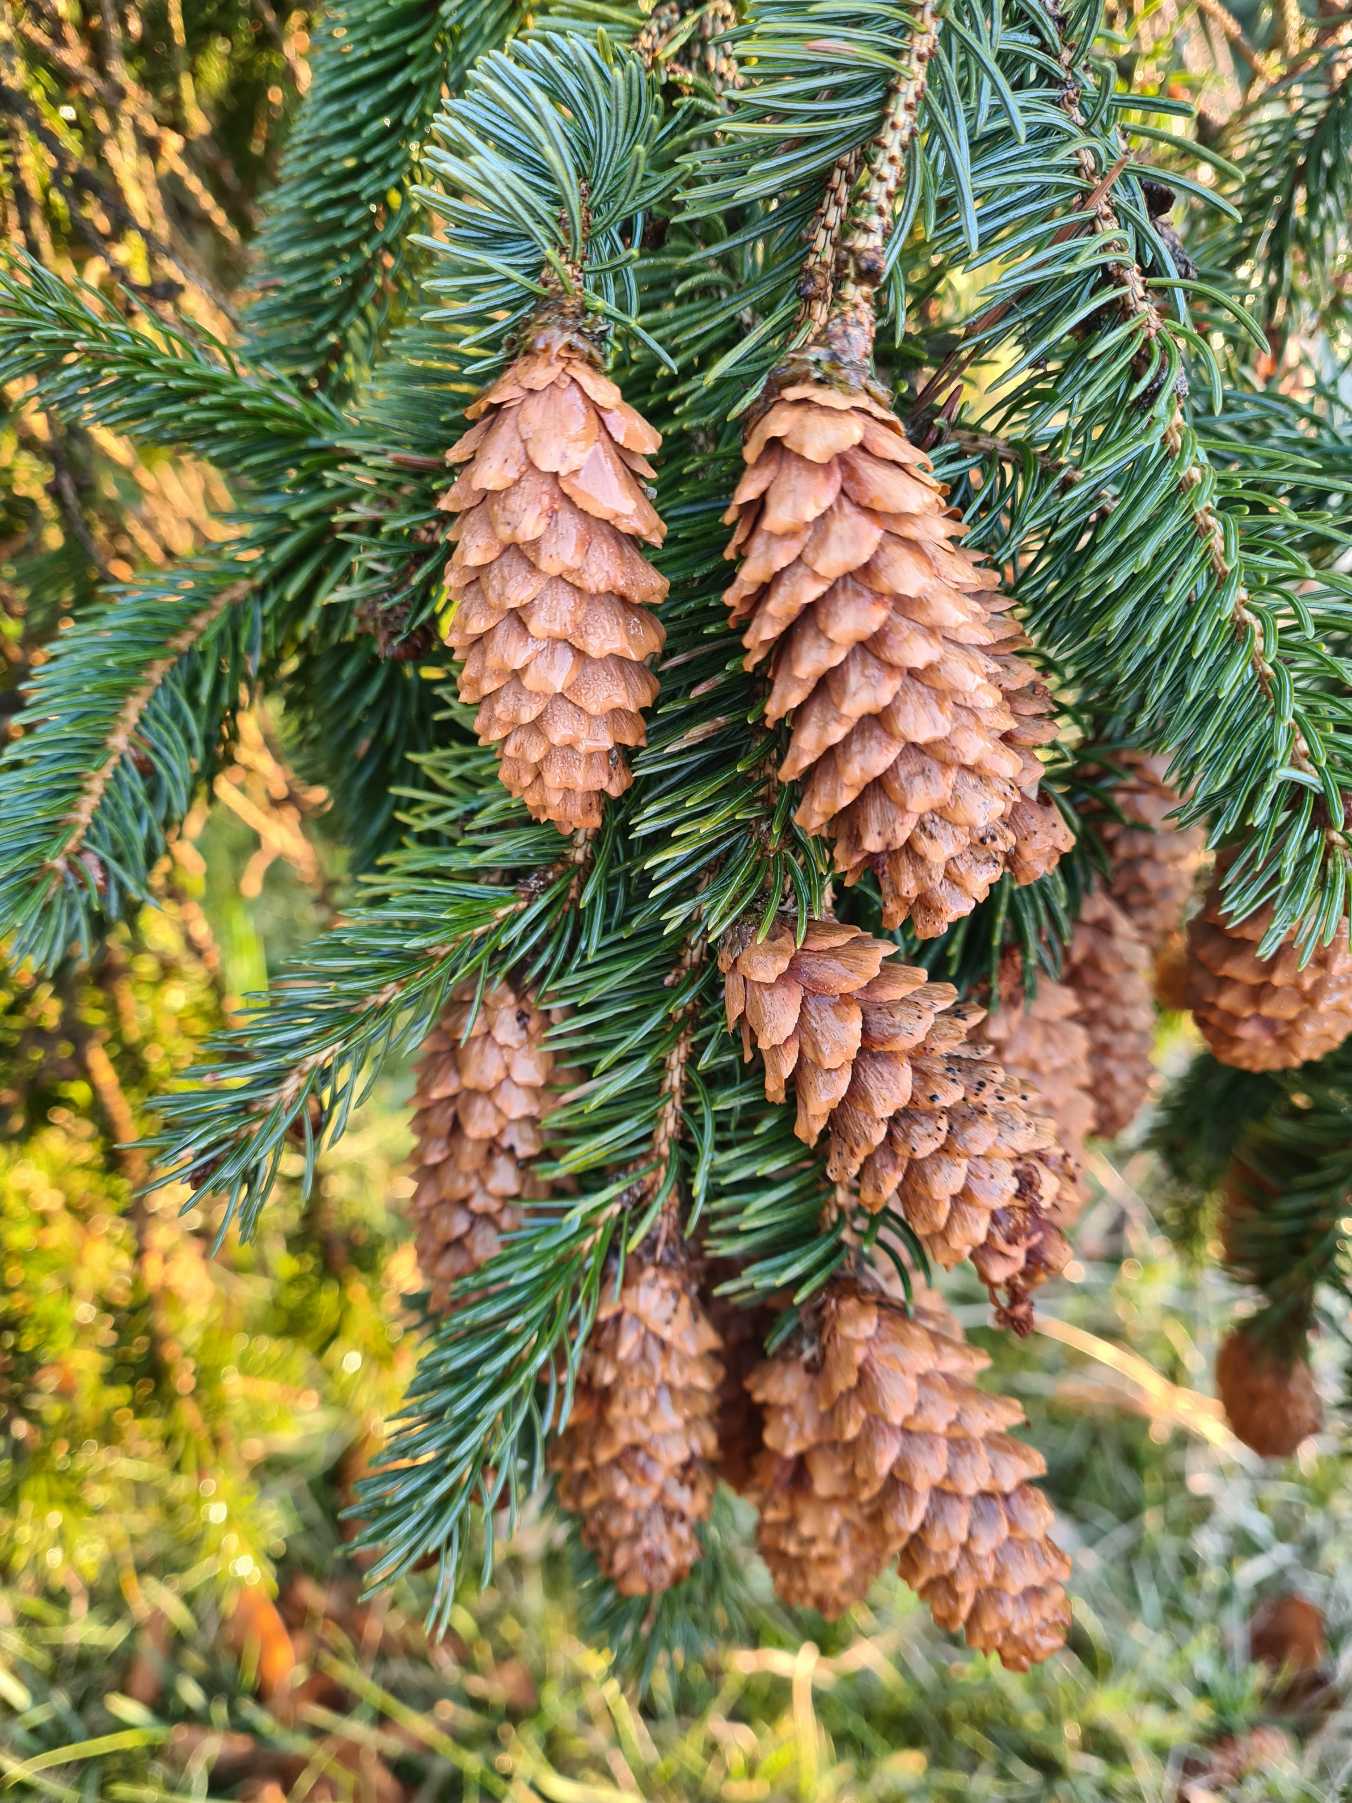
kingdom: Plantae
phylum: Tracheophyta
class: Pinopsida
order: Pinales
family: Pinaceae
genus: Picea
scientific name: Picea glauca
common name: Hvid-gran
